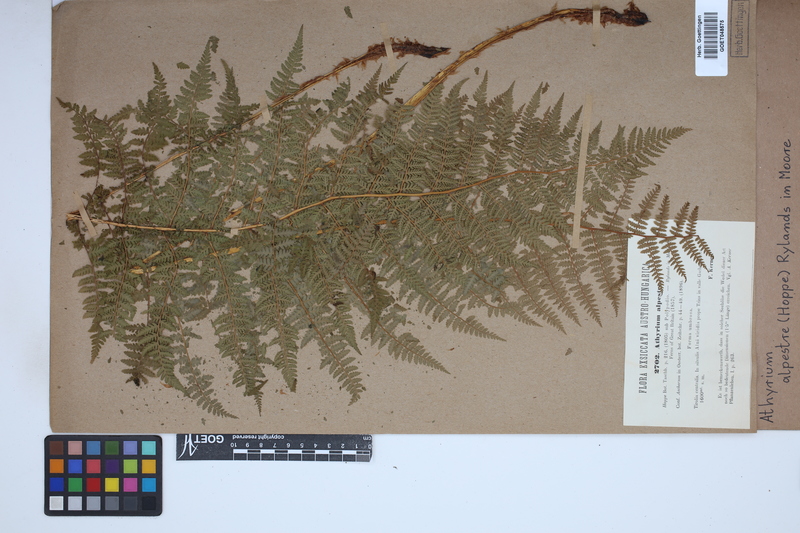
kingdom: Plantae
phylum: Tracheophyta
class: Polypodiopsida
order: Polypodiales
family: Athyriaceae
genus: Pseudathyrium
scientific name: Pseudathyrium alpestre
